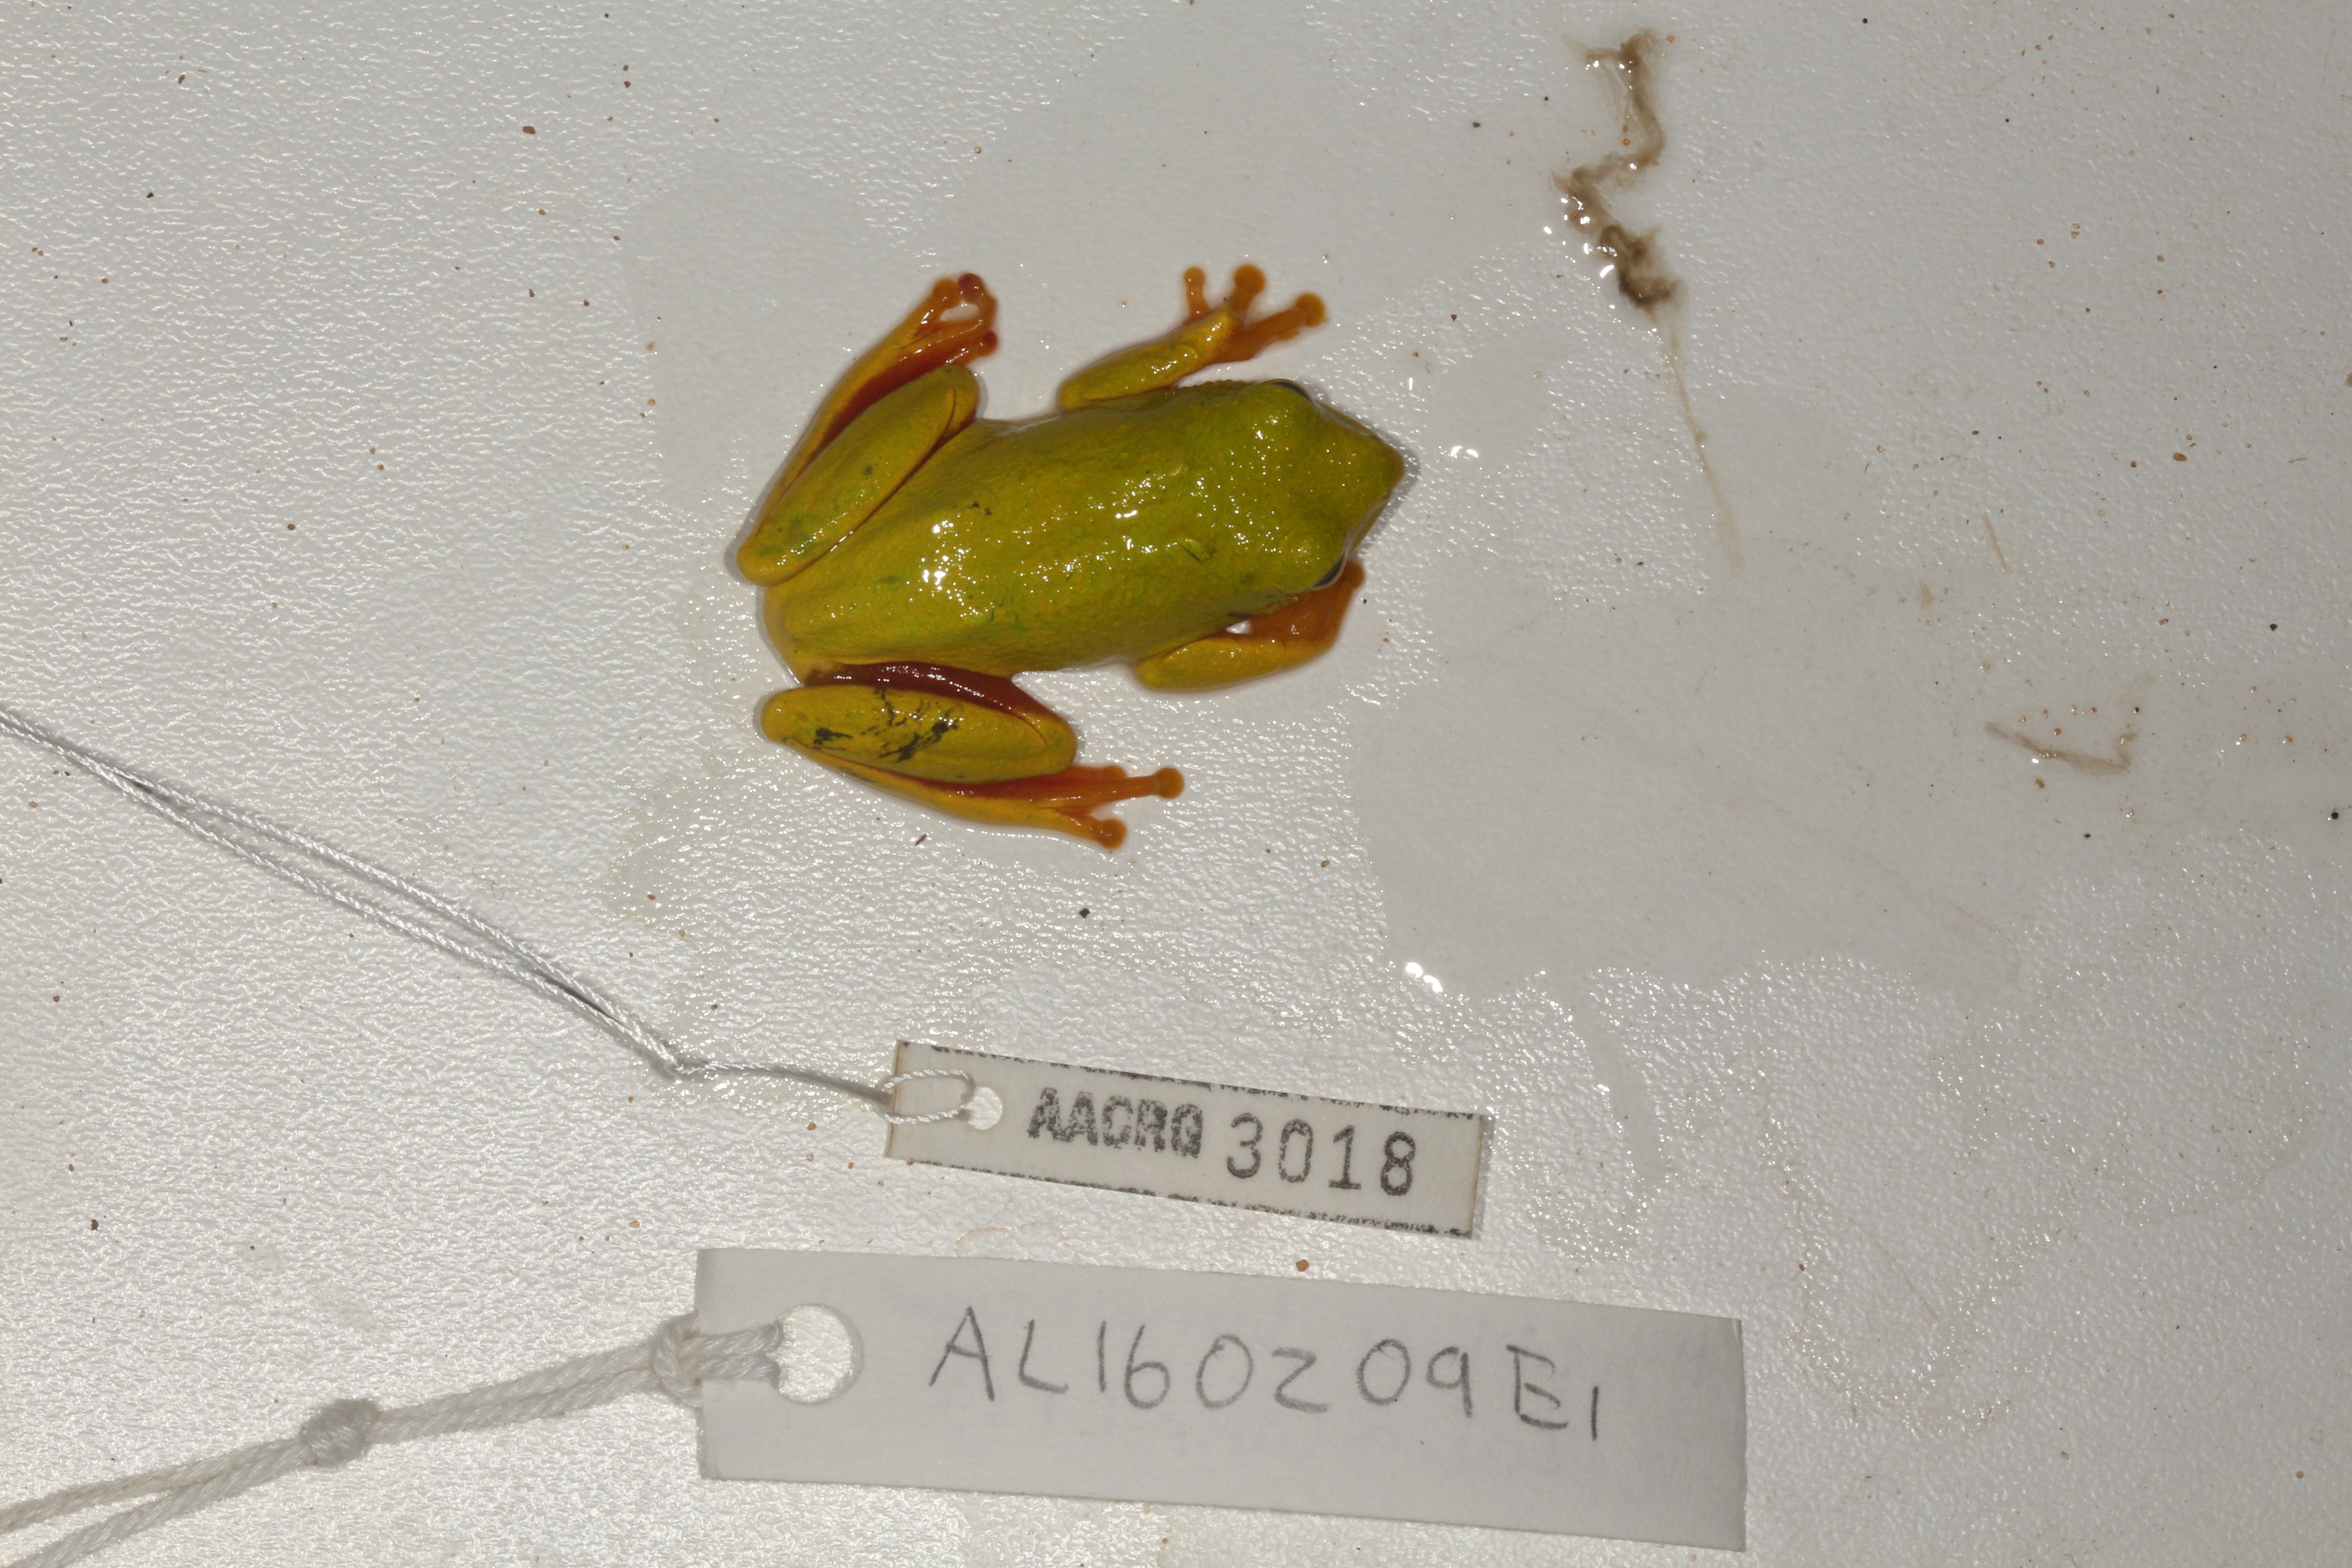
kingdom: Animalia
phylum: Chordata
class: Amphibia
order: Anura
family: Hyperoliidae
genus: Hyperolius
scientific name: Hyperolius tuberilinguis
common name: Tinker reed frog
